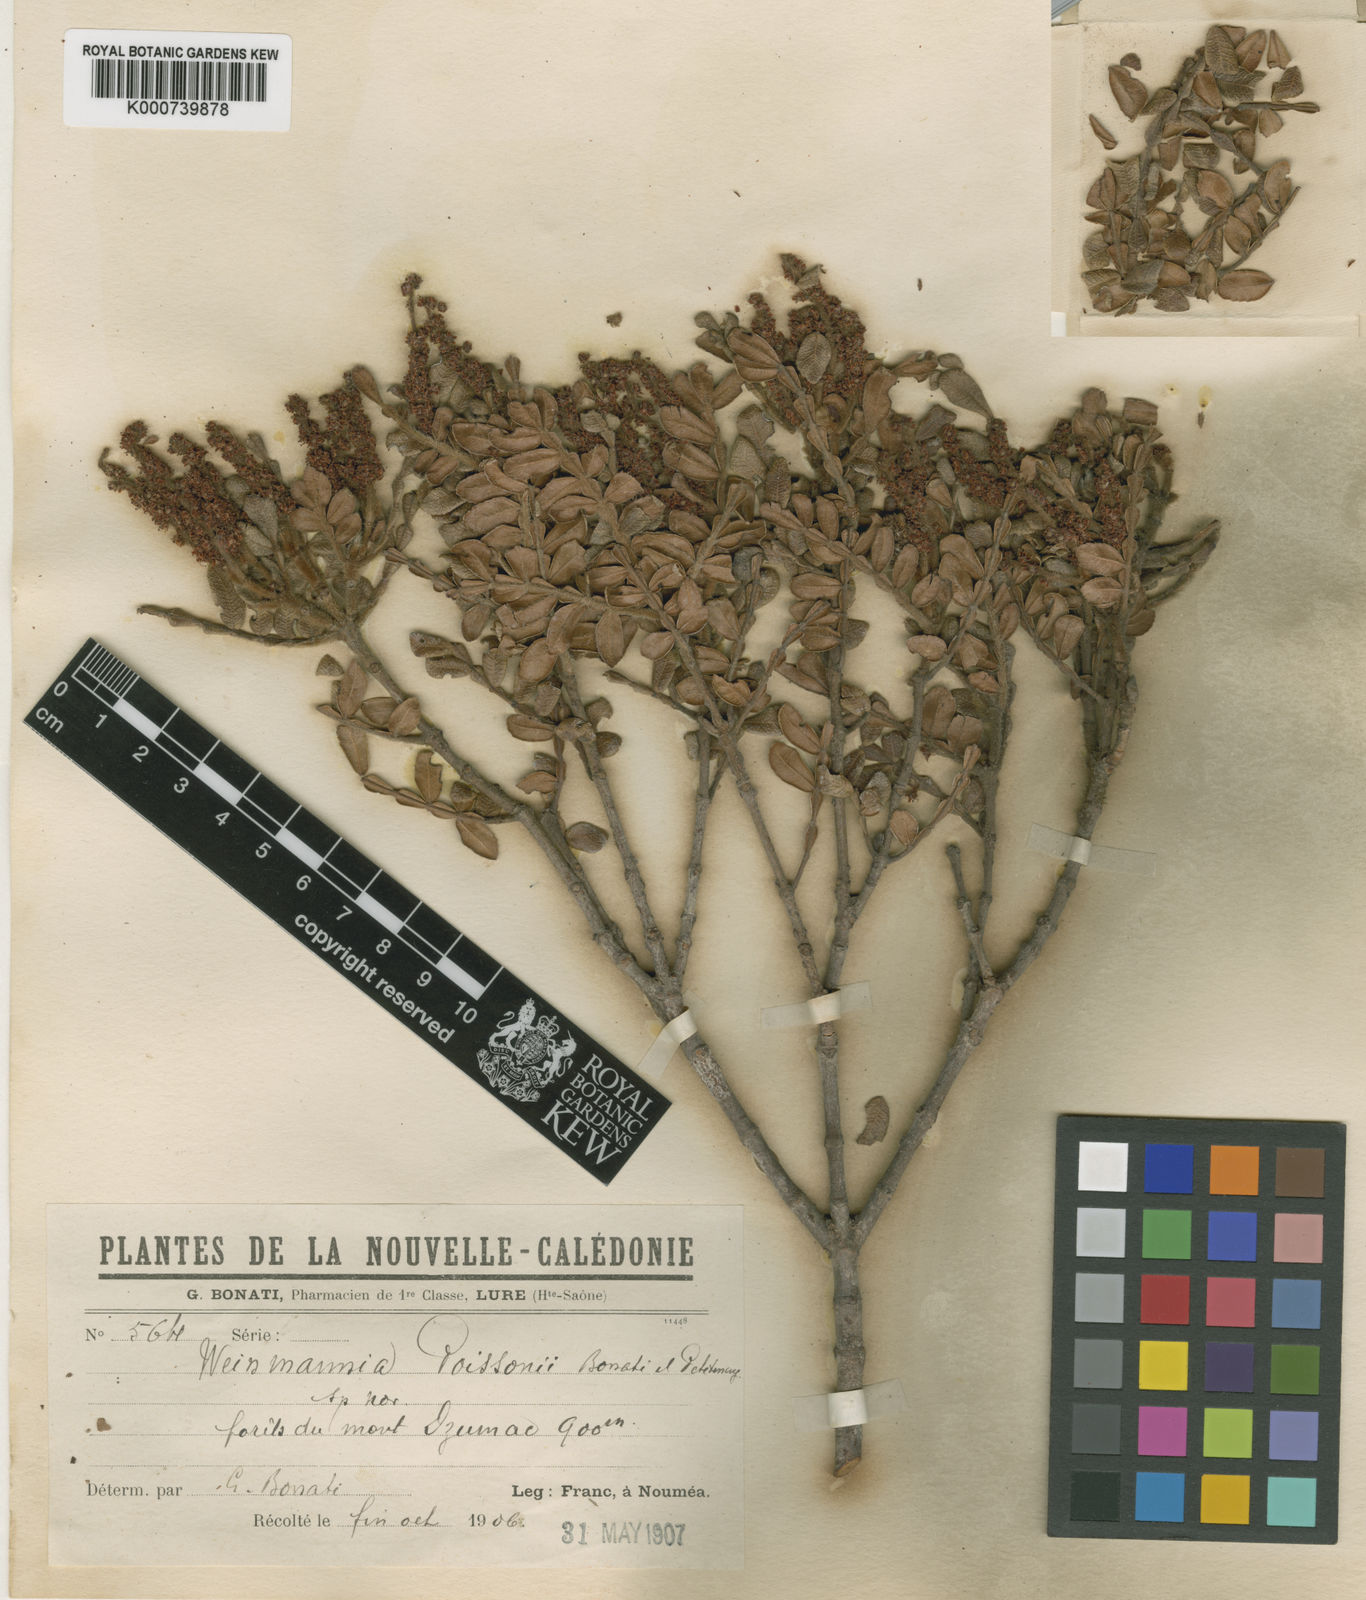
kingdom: Plantae
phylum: Tracheophyta
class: Magnoliopsida
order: Oxalidales
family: Cunoniaceae
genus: Cunonia
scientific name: Cunonia pterophylla
